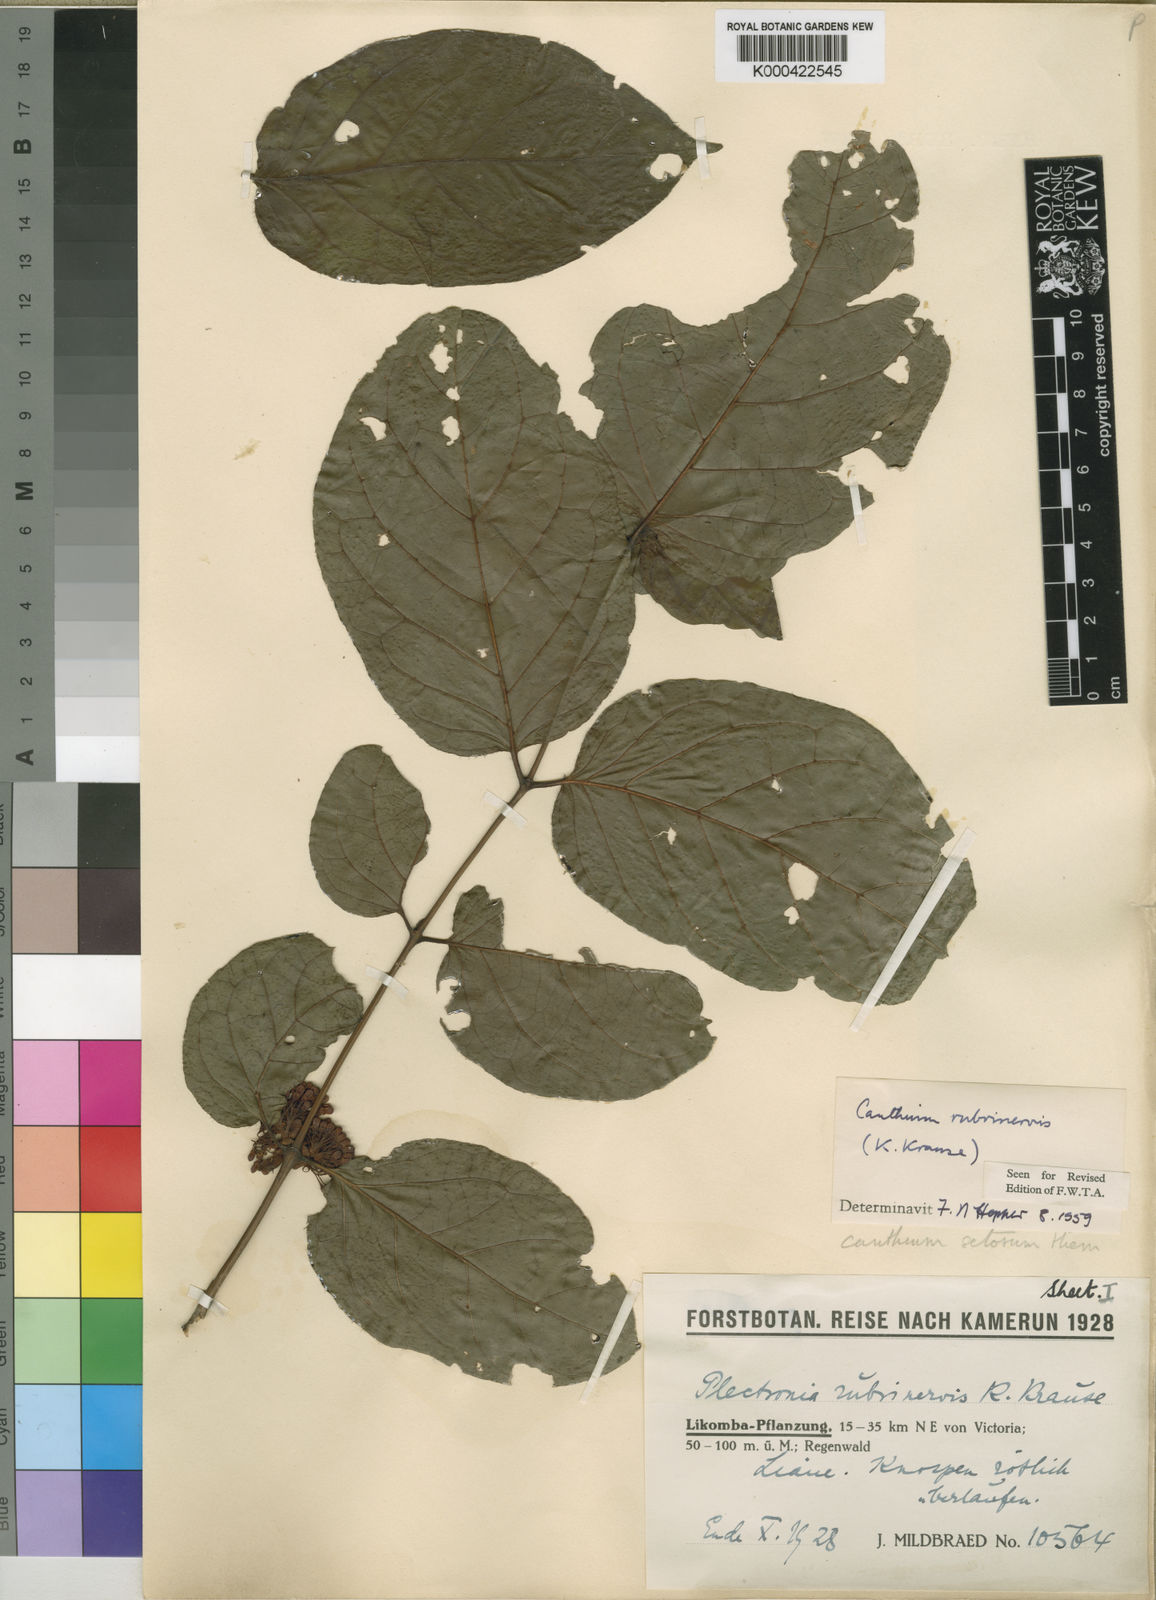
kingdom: Plantae
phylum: Tracheophyta
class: Magnoliopsida
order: Gentianales
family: Rubiaceae
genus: Keetia
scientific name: Keetia hispida
